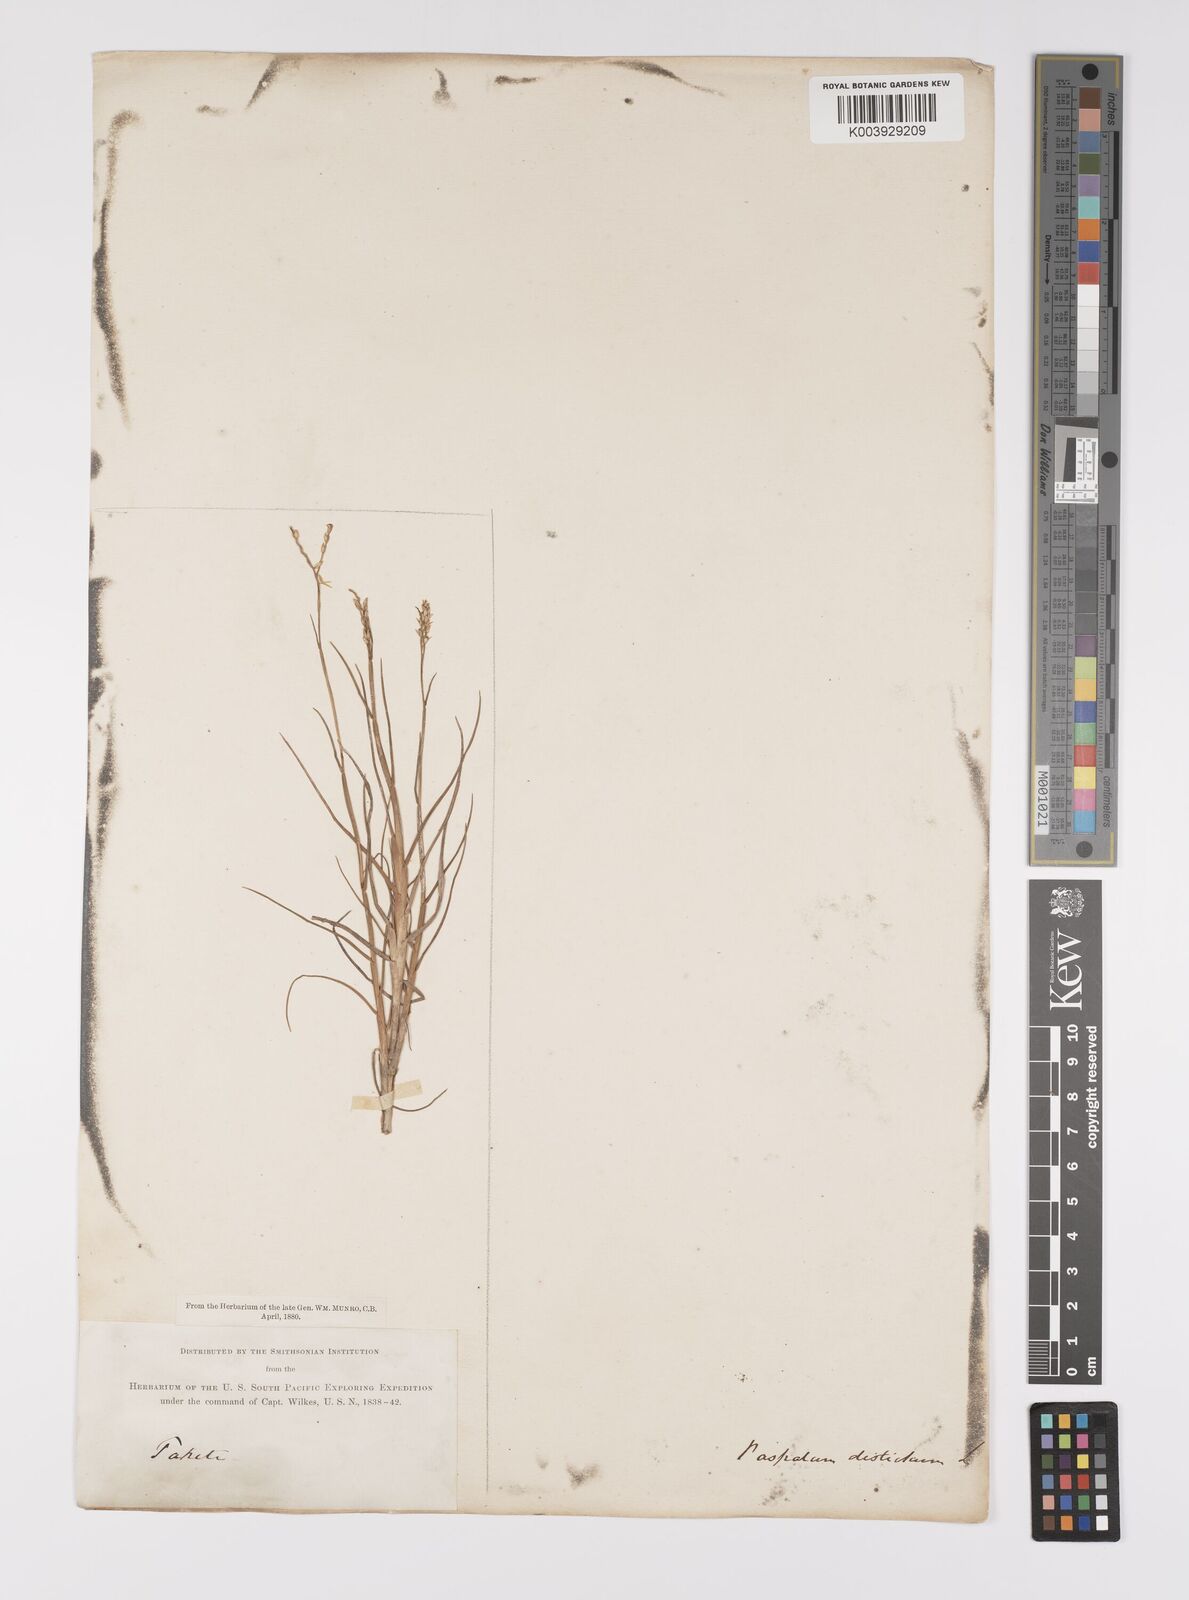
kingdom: Plantae
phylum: Tracheophyta
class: Liliopsida
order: Poales
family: Poaceae
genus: Paspalum
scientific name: Paspalum vaginatum
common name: Seashore paspalum
